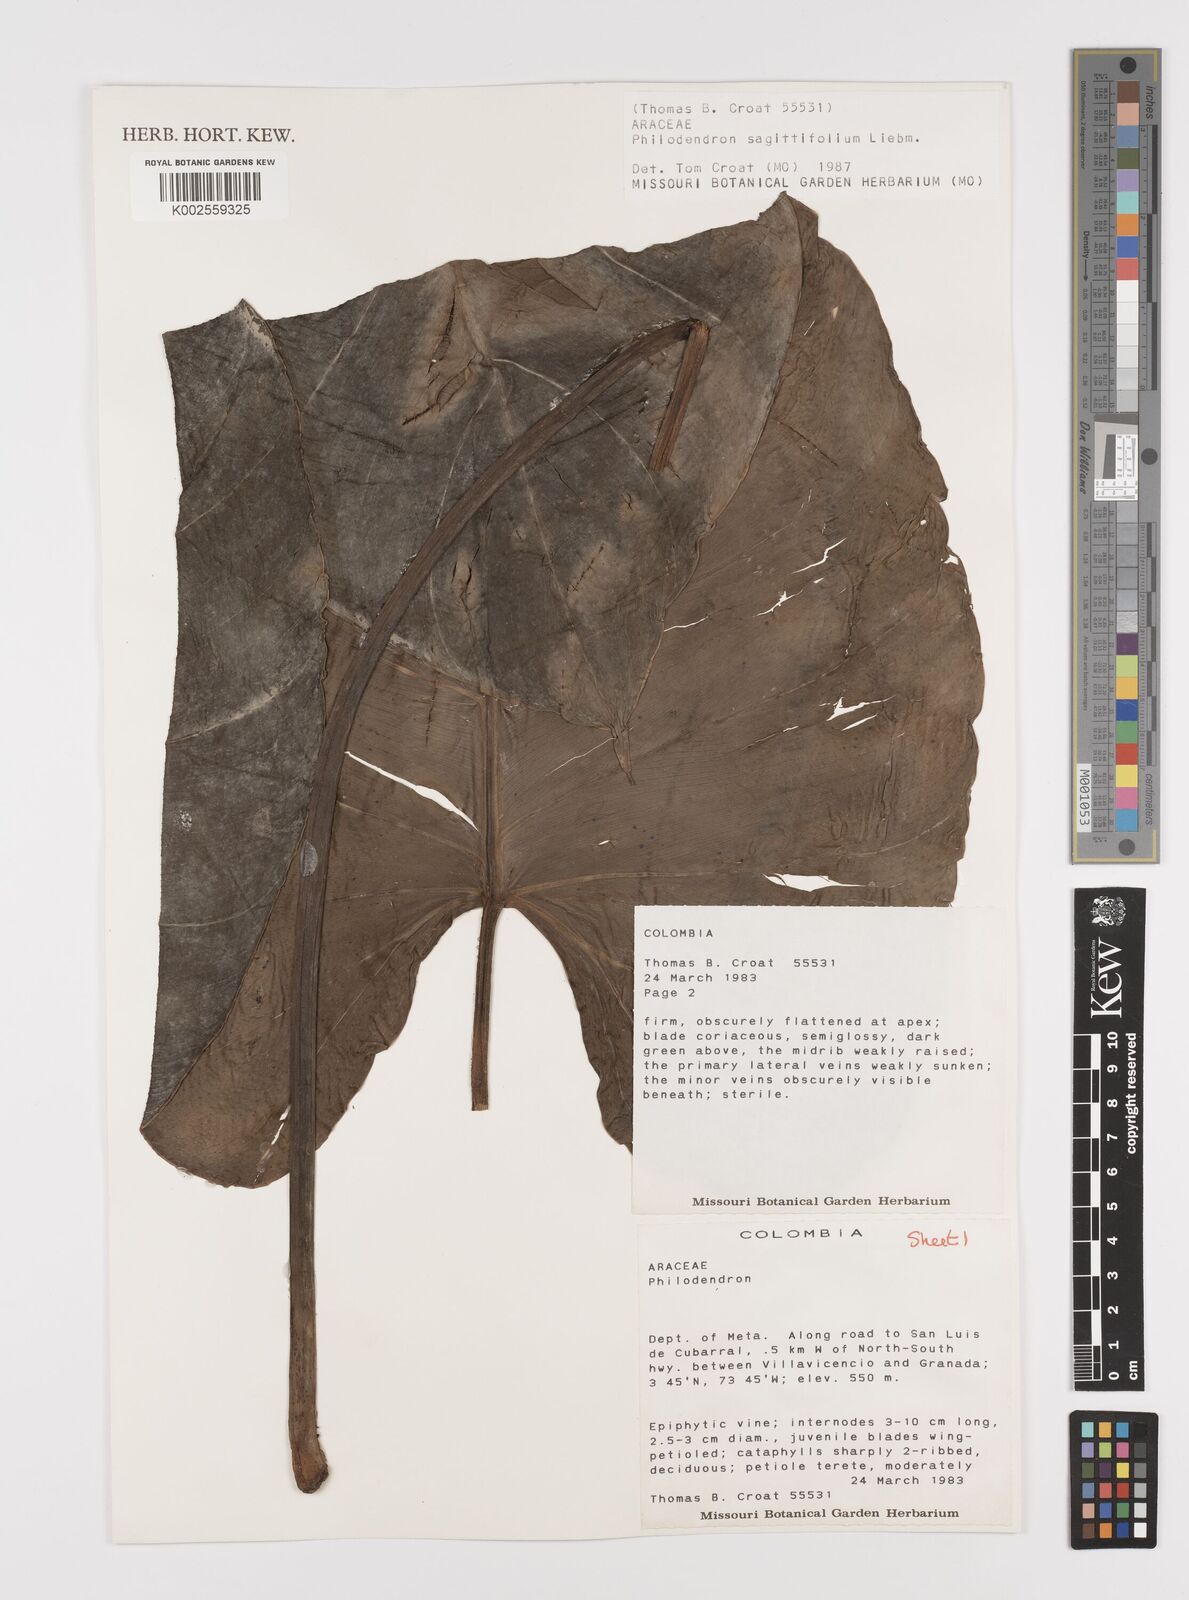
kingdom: Plantae
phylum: Tracheophyta
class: Liliopsida
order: Alismatales
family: Araceae
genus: Philodendron
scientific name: Philodendron sagittifolium
